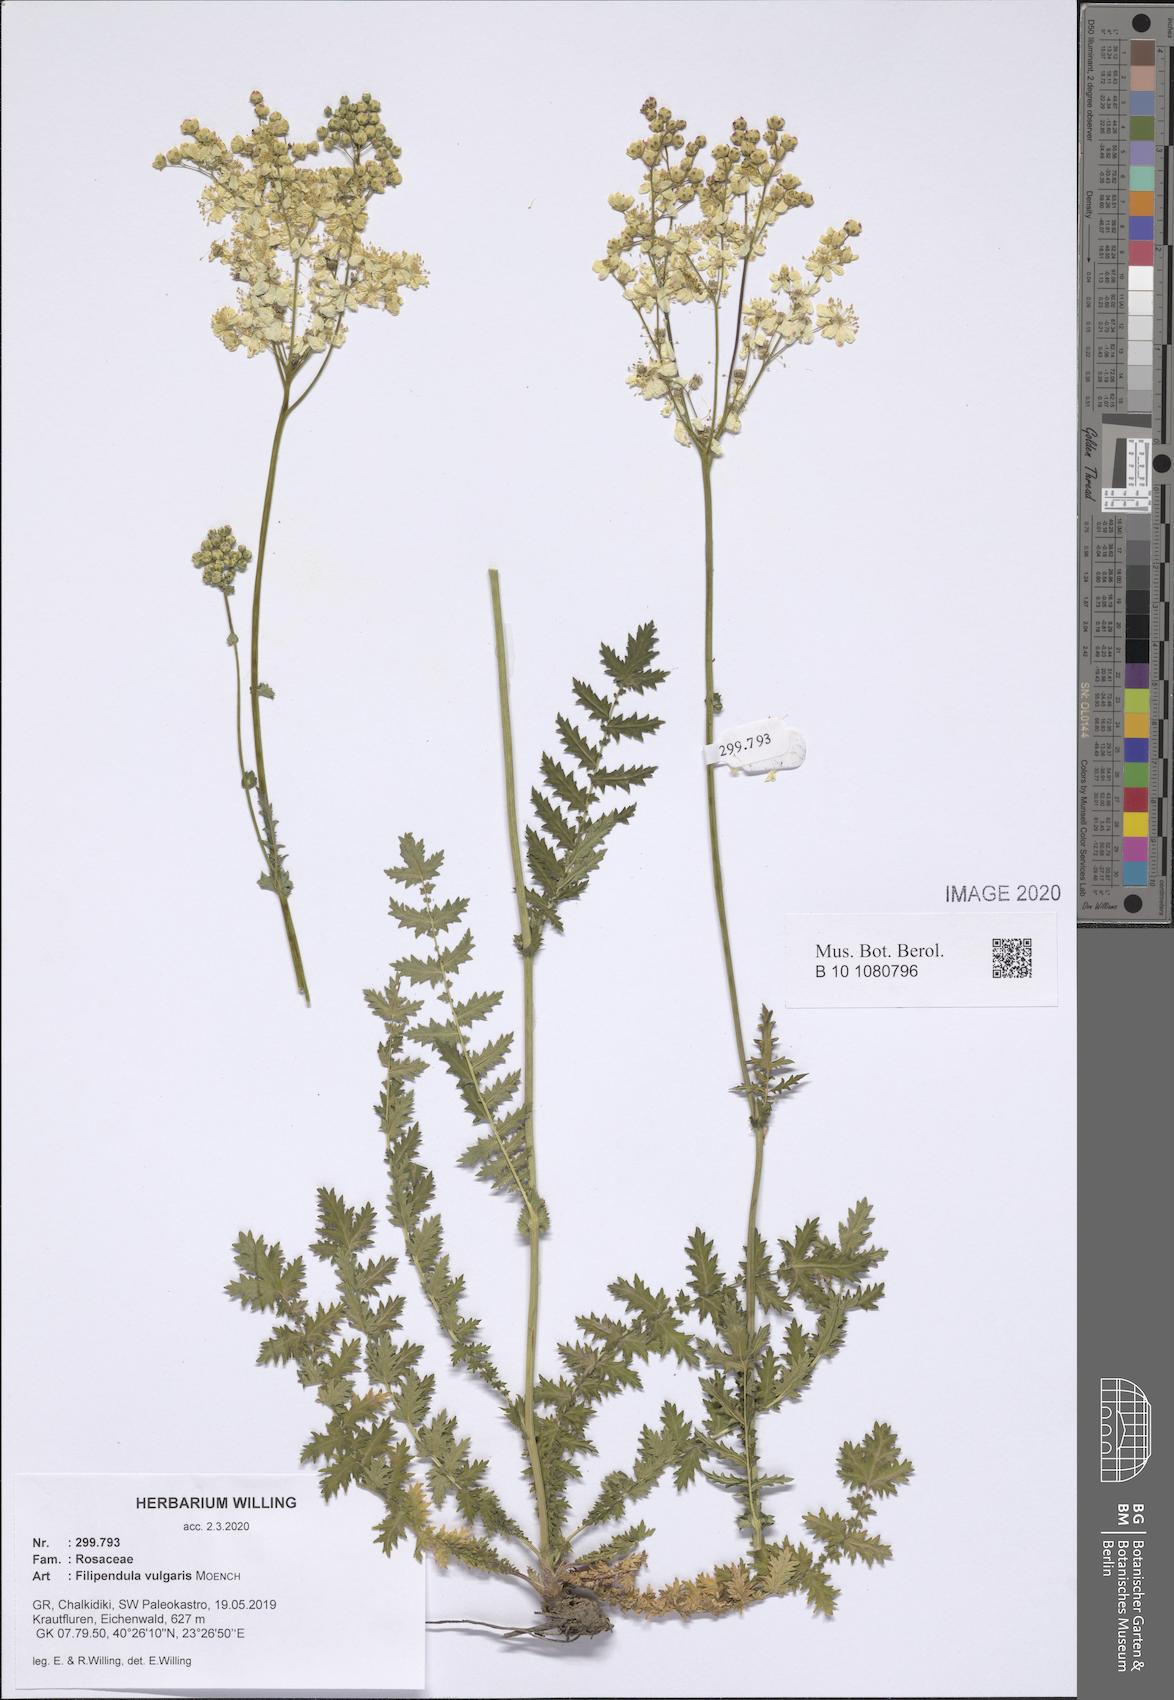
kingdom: Plantae
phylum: Tracheophyta
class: Magnoliopsida
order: Rosales
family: Rosaceae
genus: Filipendula
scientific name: Filipendula vulgaris
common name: Dropwort
